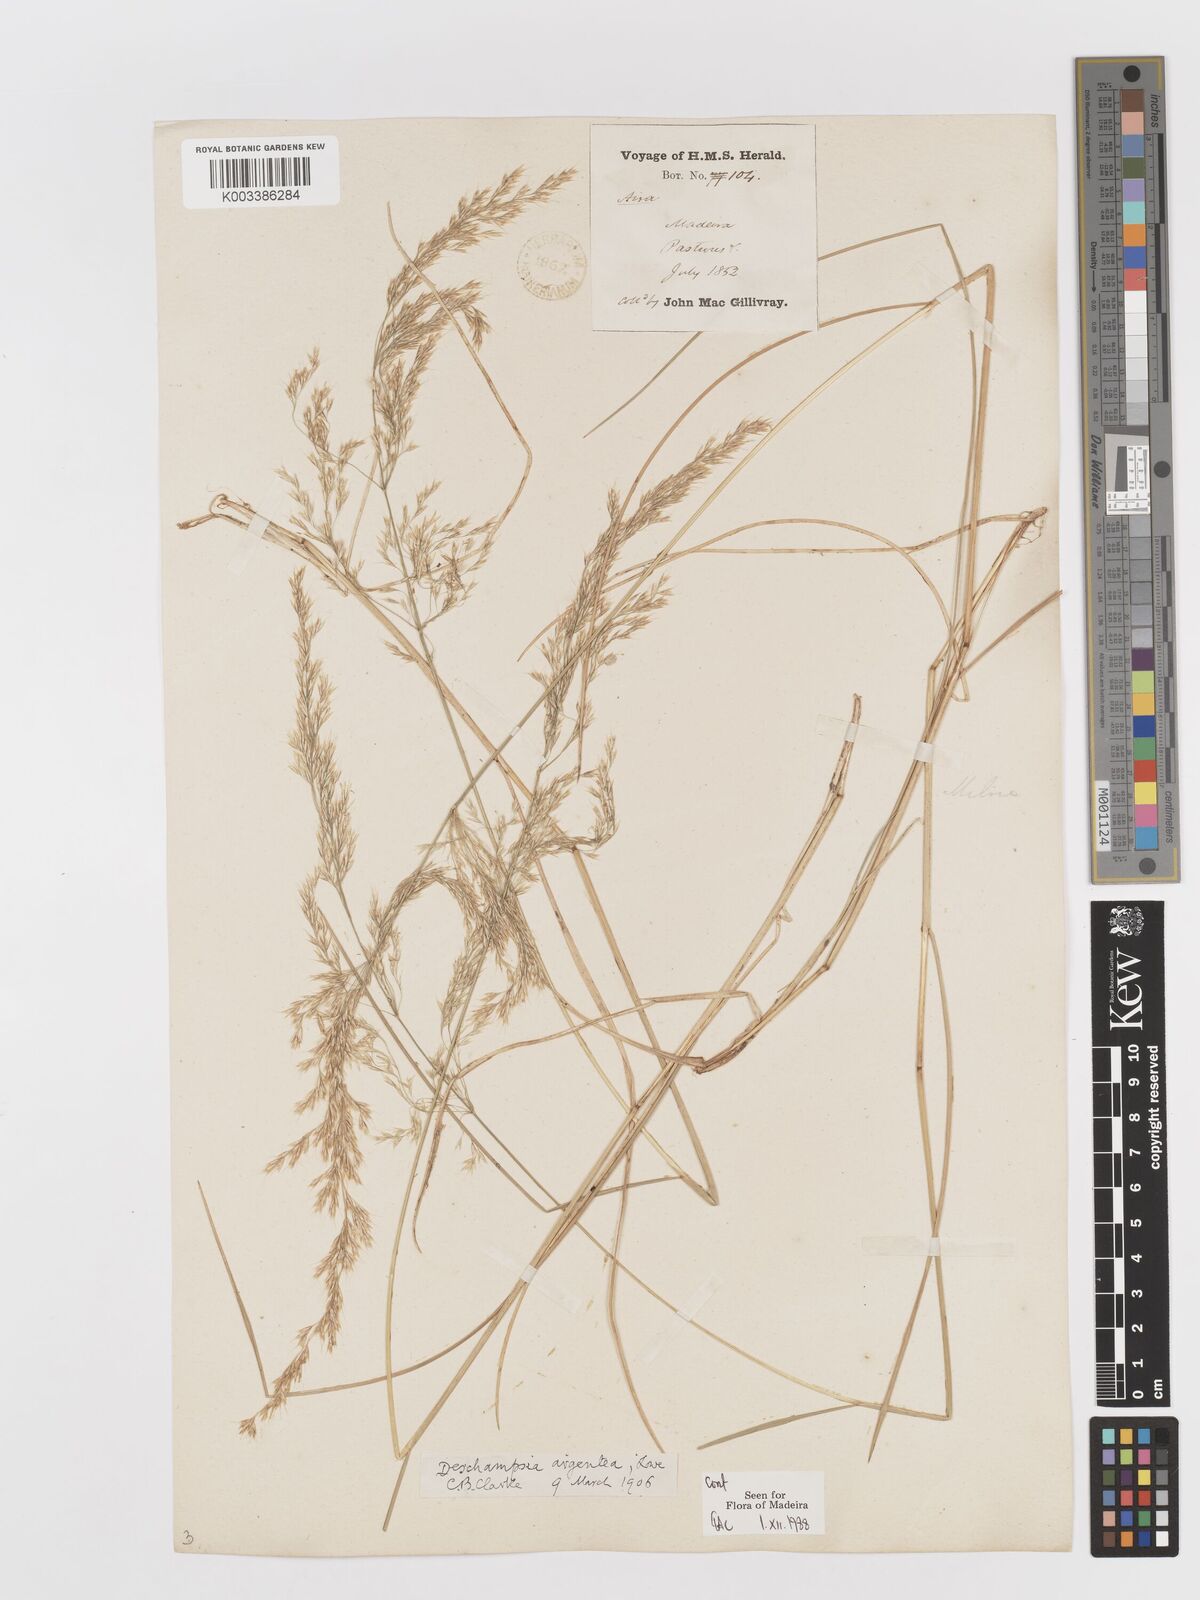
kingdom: Plantae
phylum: Tracheophyta
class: Liliopsida
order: Poales
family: Poaceae
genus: Deschampsia
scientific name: Deschampsia argentea
